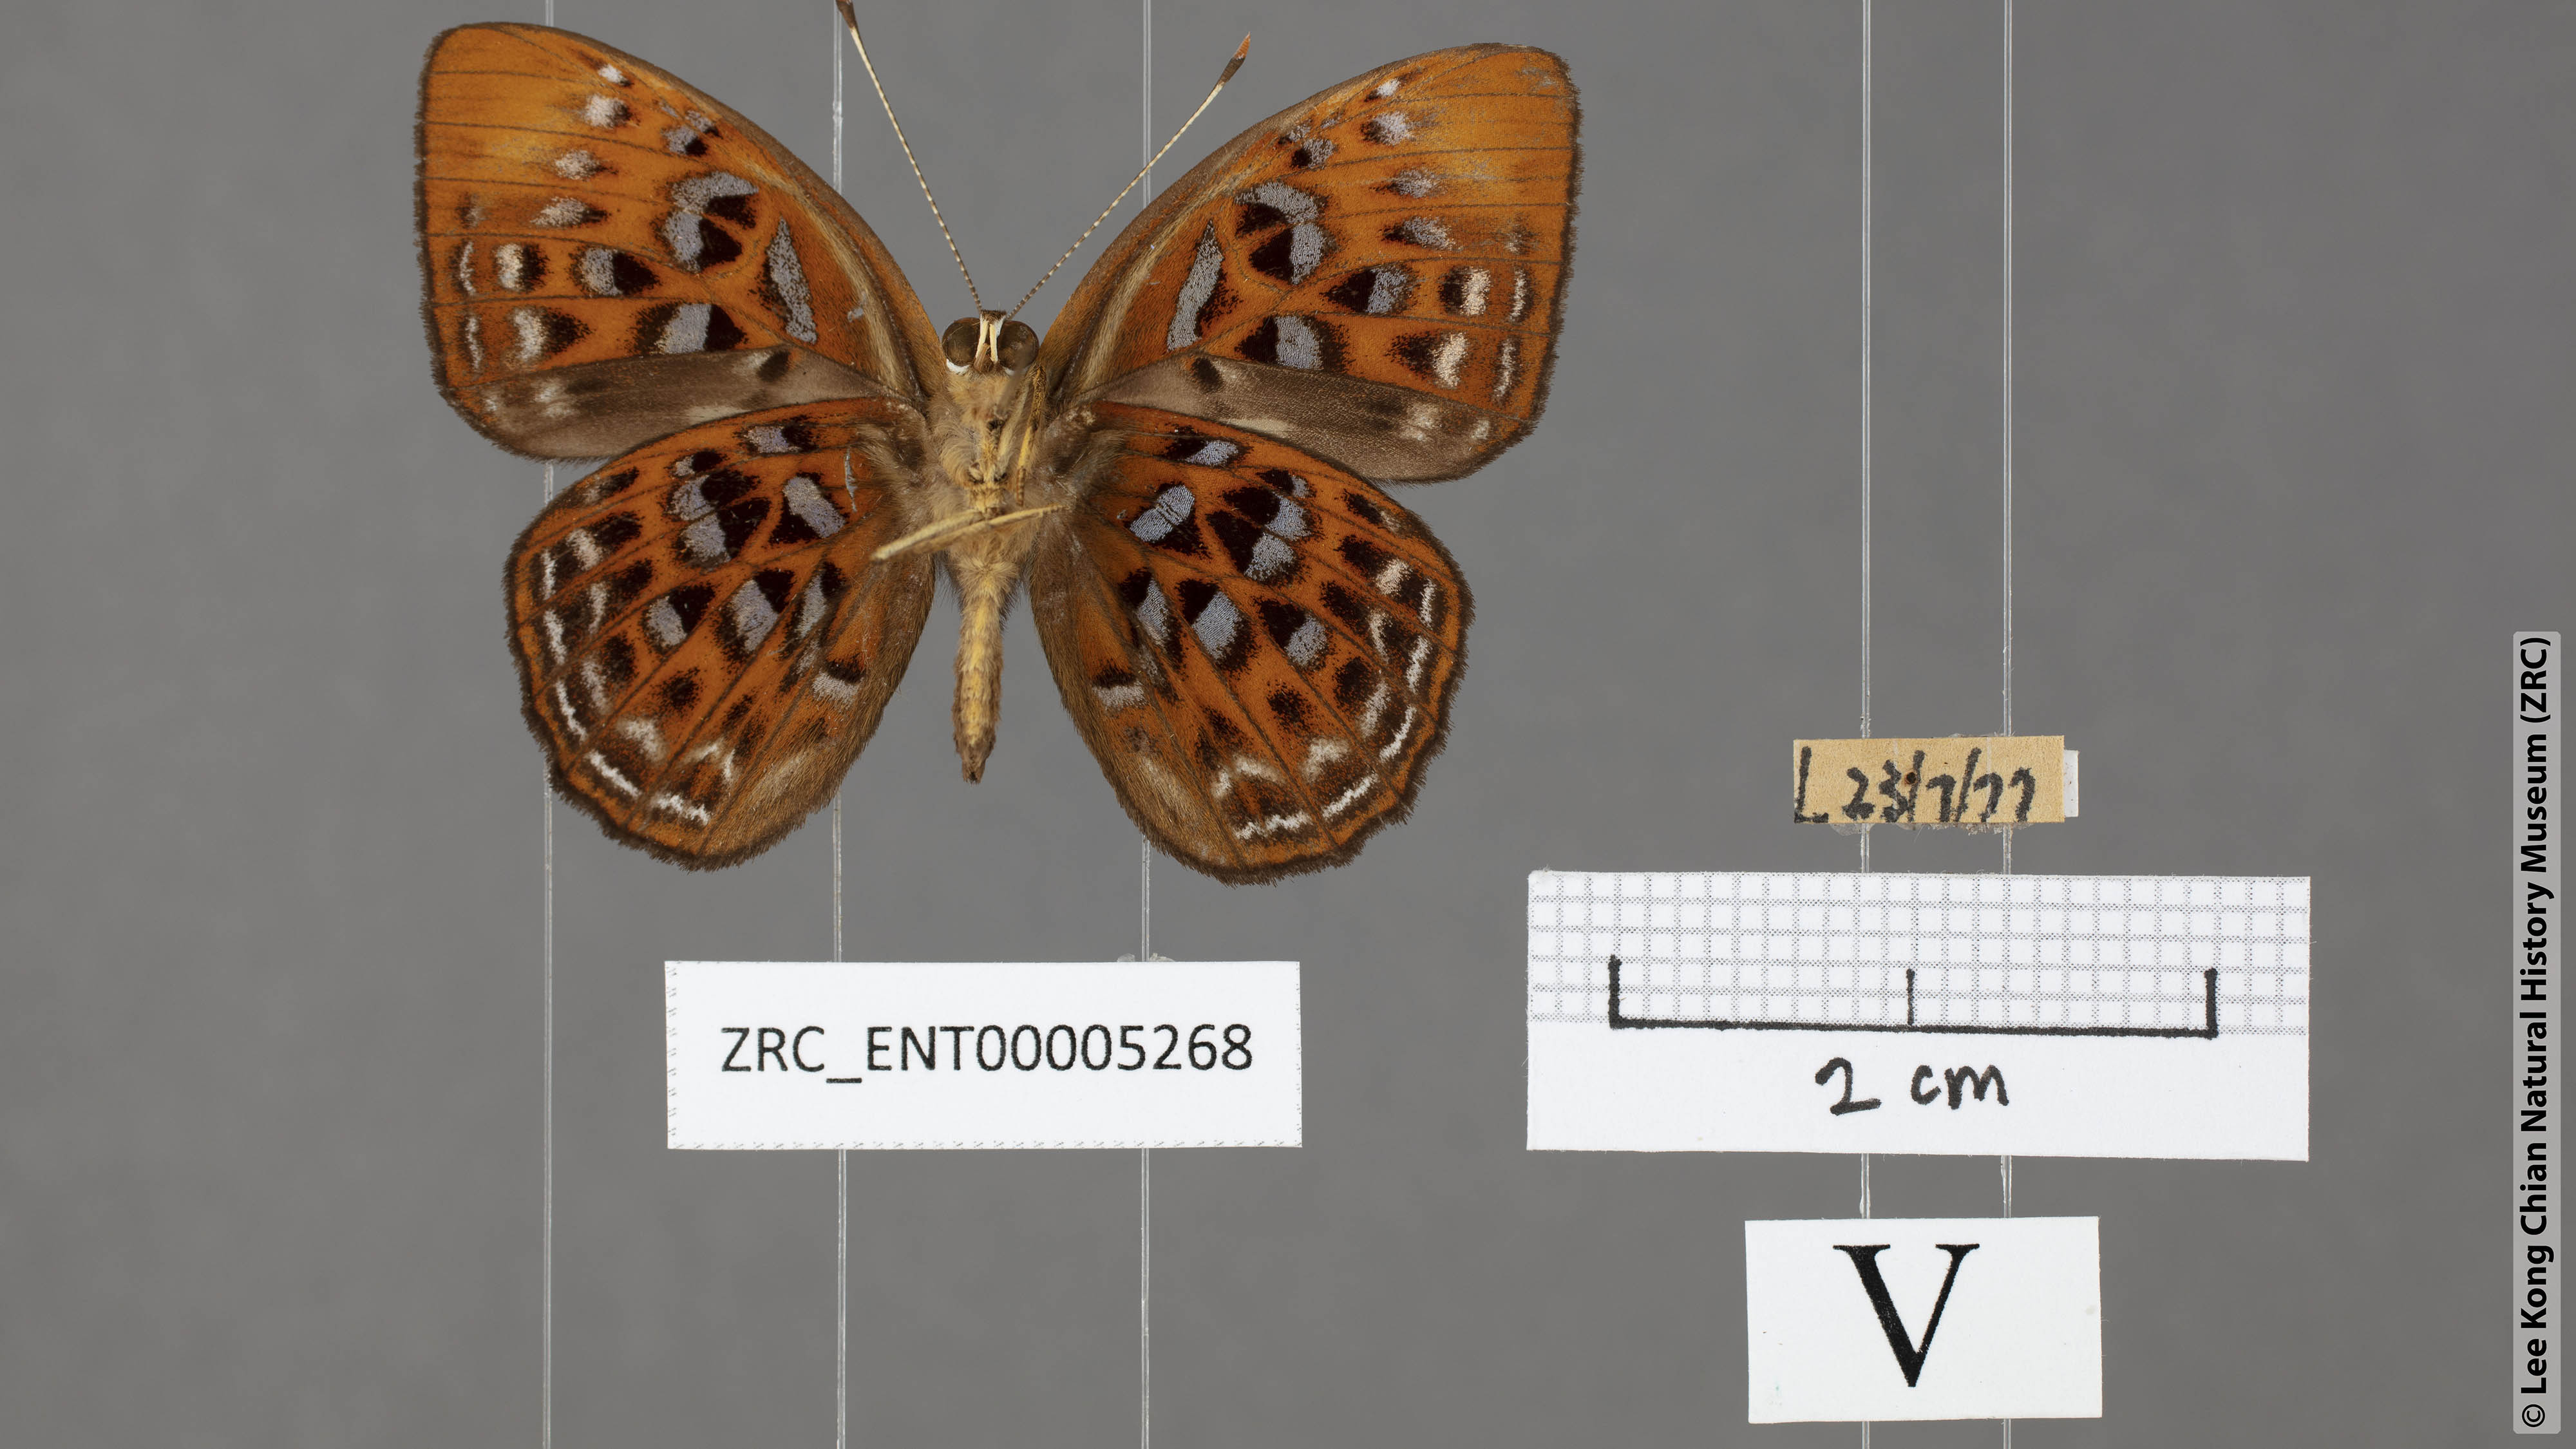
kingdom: Animalia
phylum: Arthropoda
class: Insecta
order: Lepidoptera
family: Erebidae
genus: Dysschema
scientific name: Dysschema
